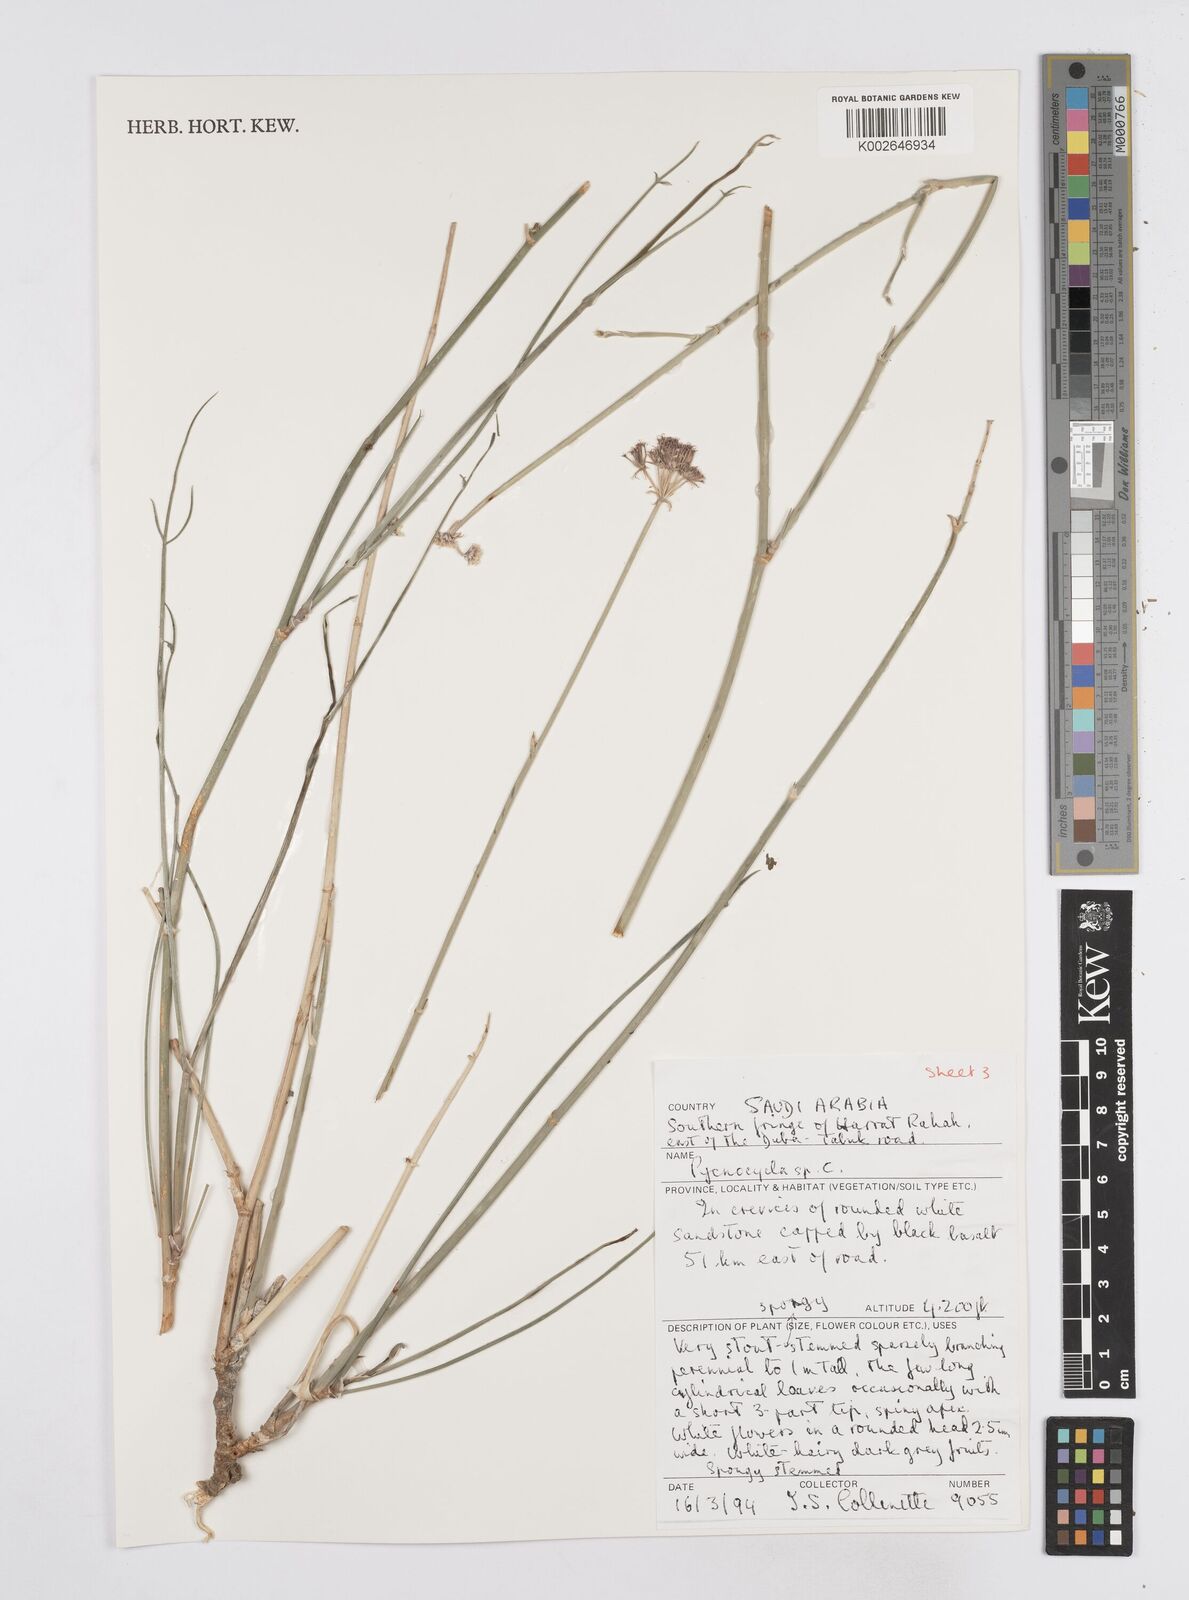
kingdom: Plantae
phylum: Tracheophyta
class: Magnoliopsida
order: Apiales
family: Apiaceae
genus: Pycnocycla
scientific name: Pycnocycla
